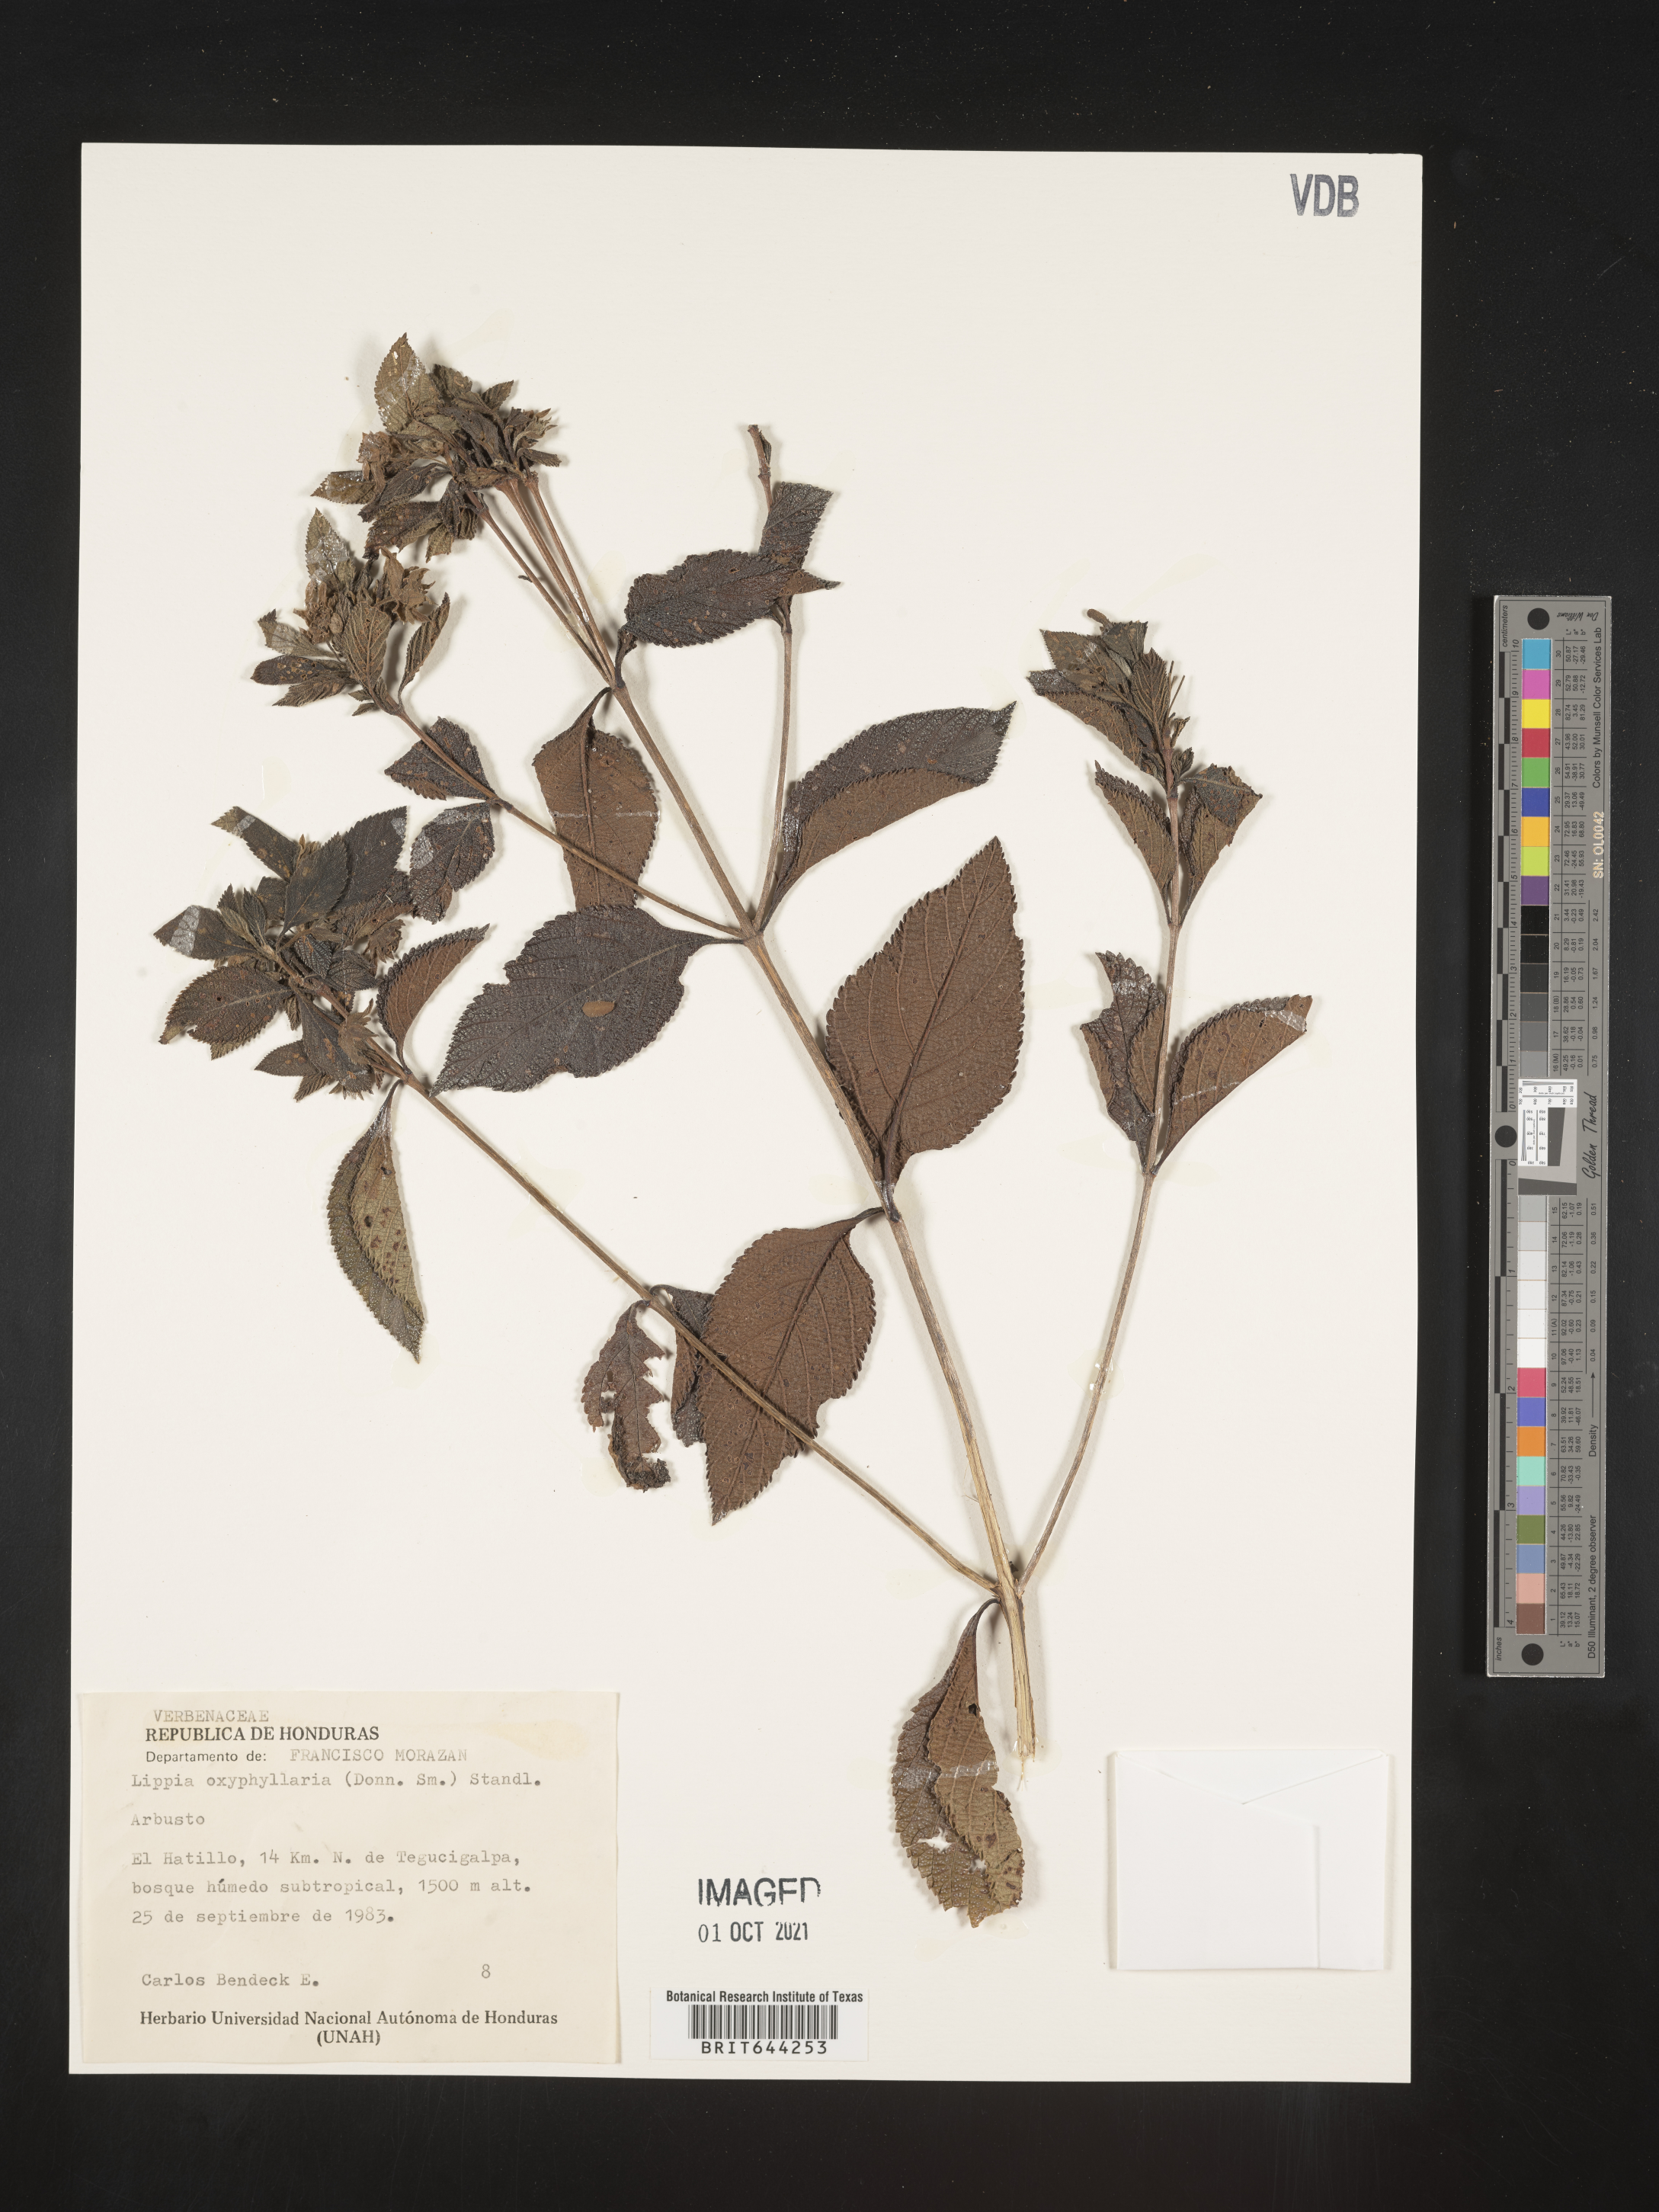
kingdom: Plantae
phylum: Tracheophyta
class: Magnoliopsida
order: Lamiales
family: Verbenaceae
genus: Lippia
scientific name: Lippia
